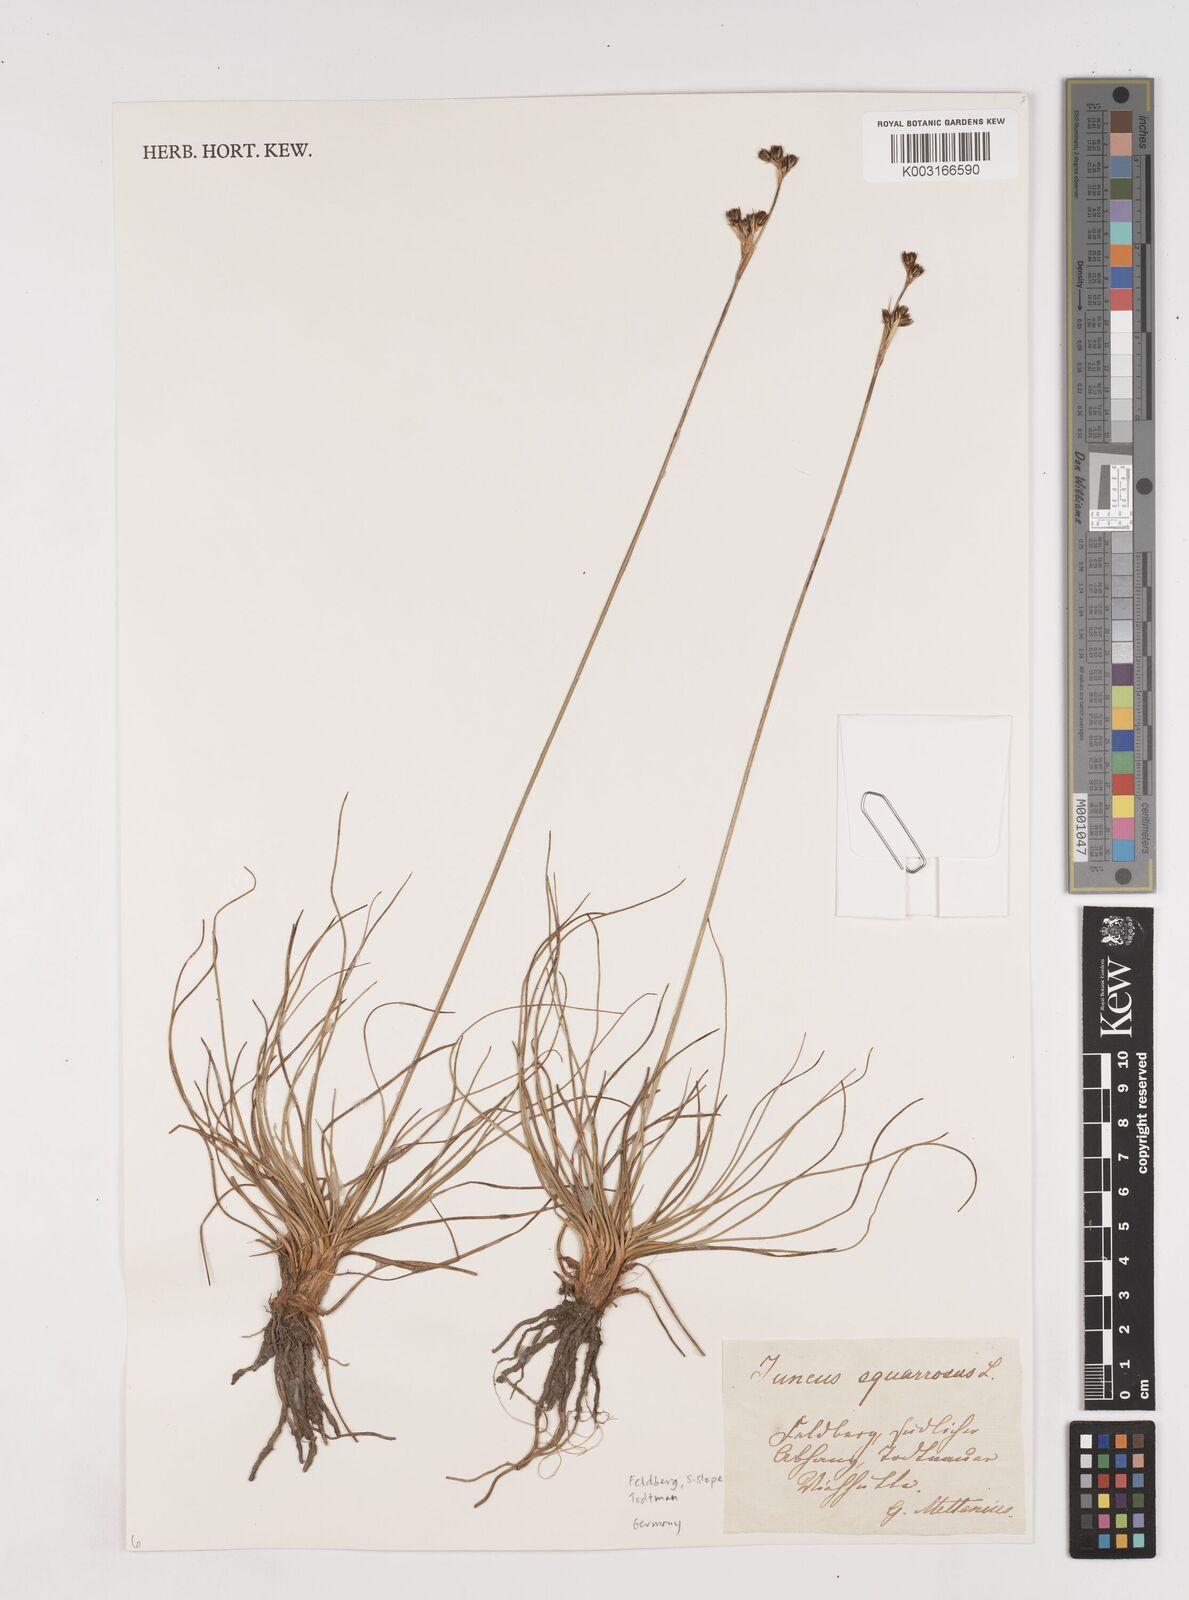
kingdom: Plantae
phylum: Tracheophyta
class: Liliopsida
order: Poales
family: Juncaceae
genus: Juncus
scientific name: Juncus squarrosus
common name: Heath rush
